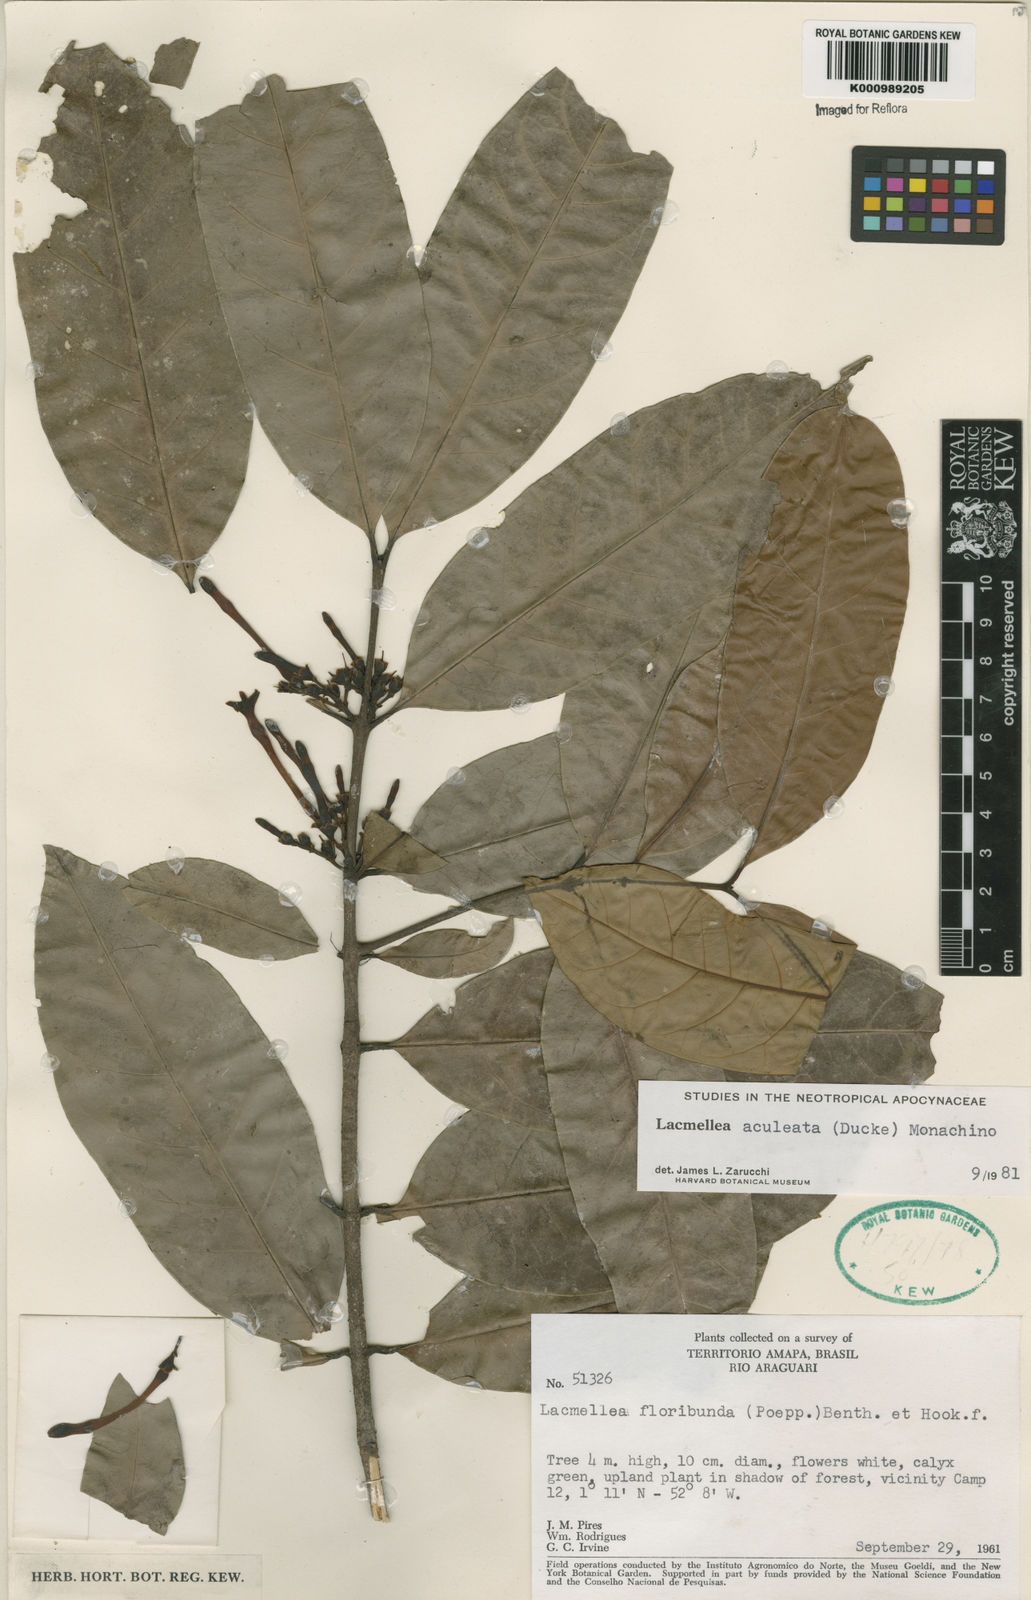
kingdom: Plantae
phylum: Tracheophyta
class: Magnoliopsida
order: Gentianales
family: Apocynaceae
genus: Lacmellea
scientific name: Lacmellea aculeata
